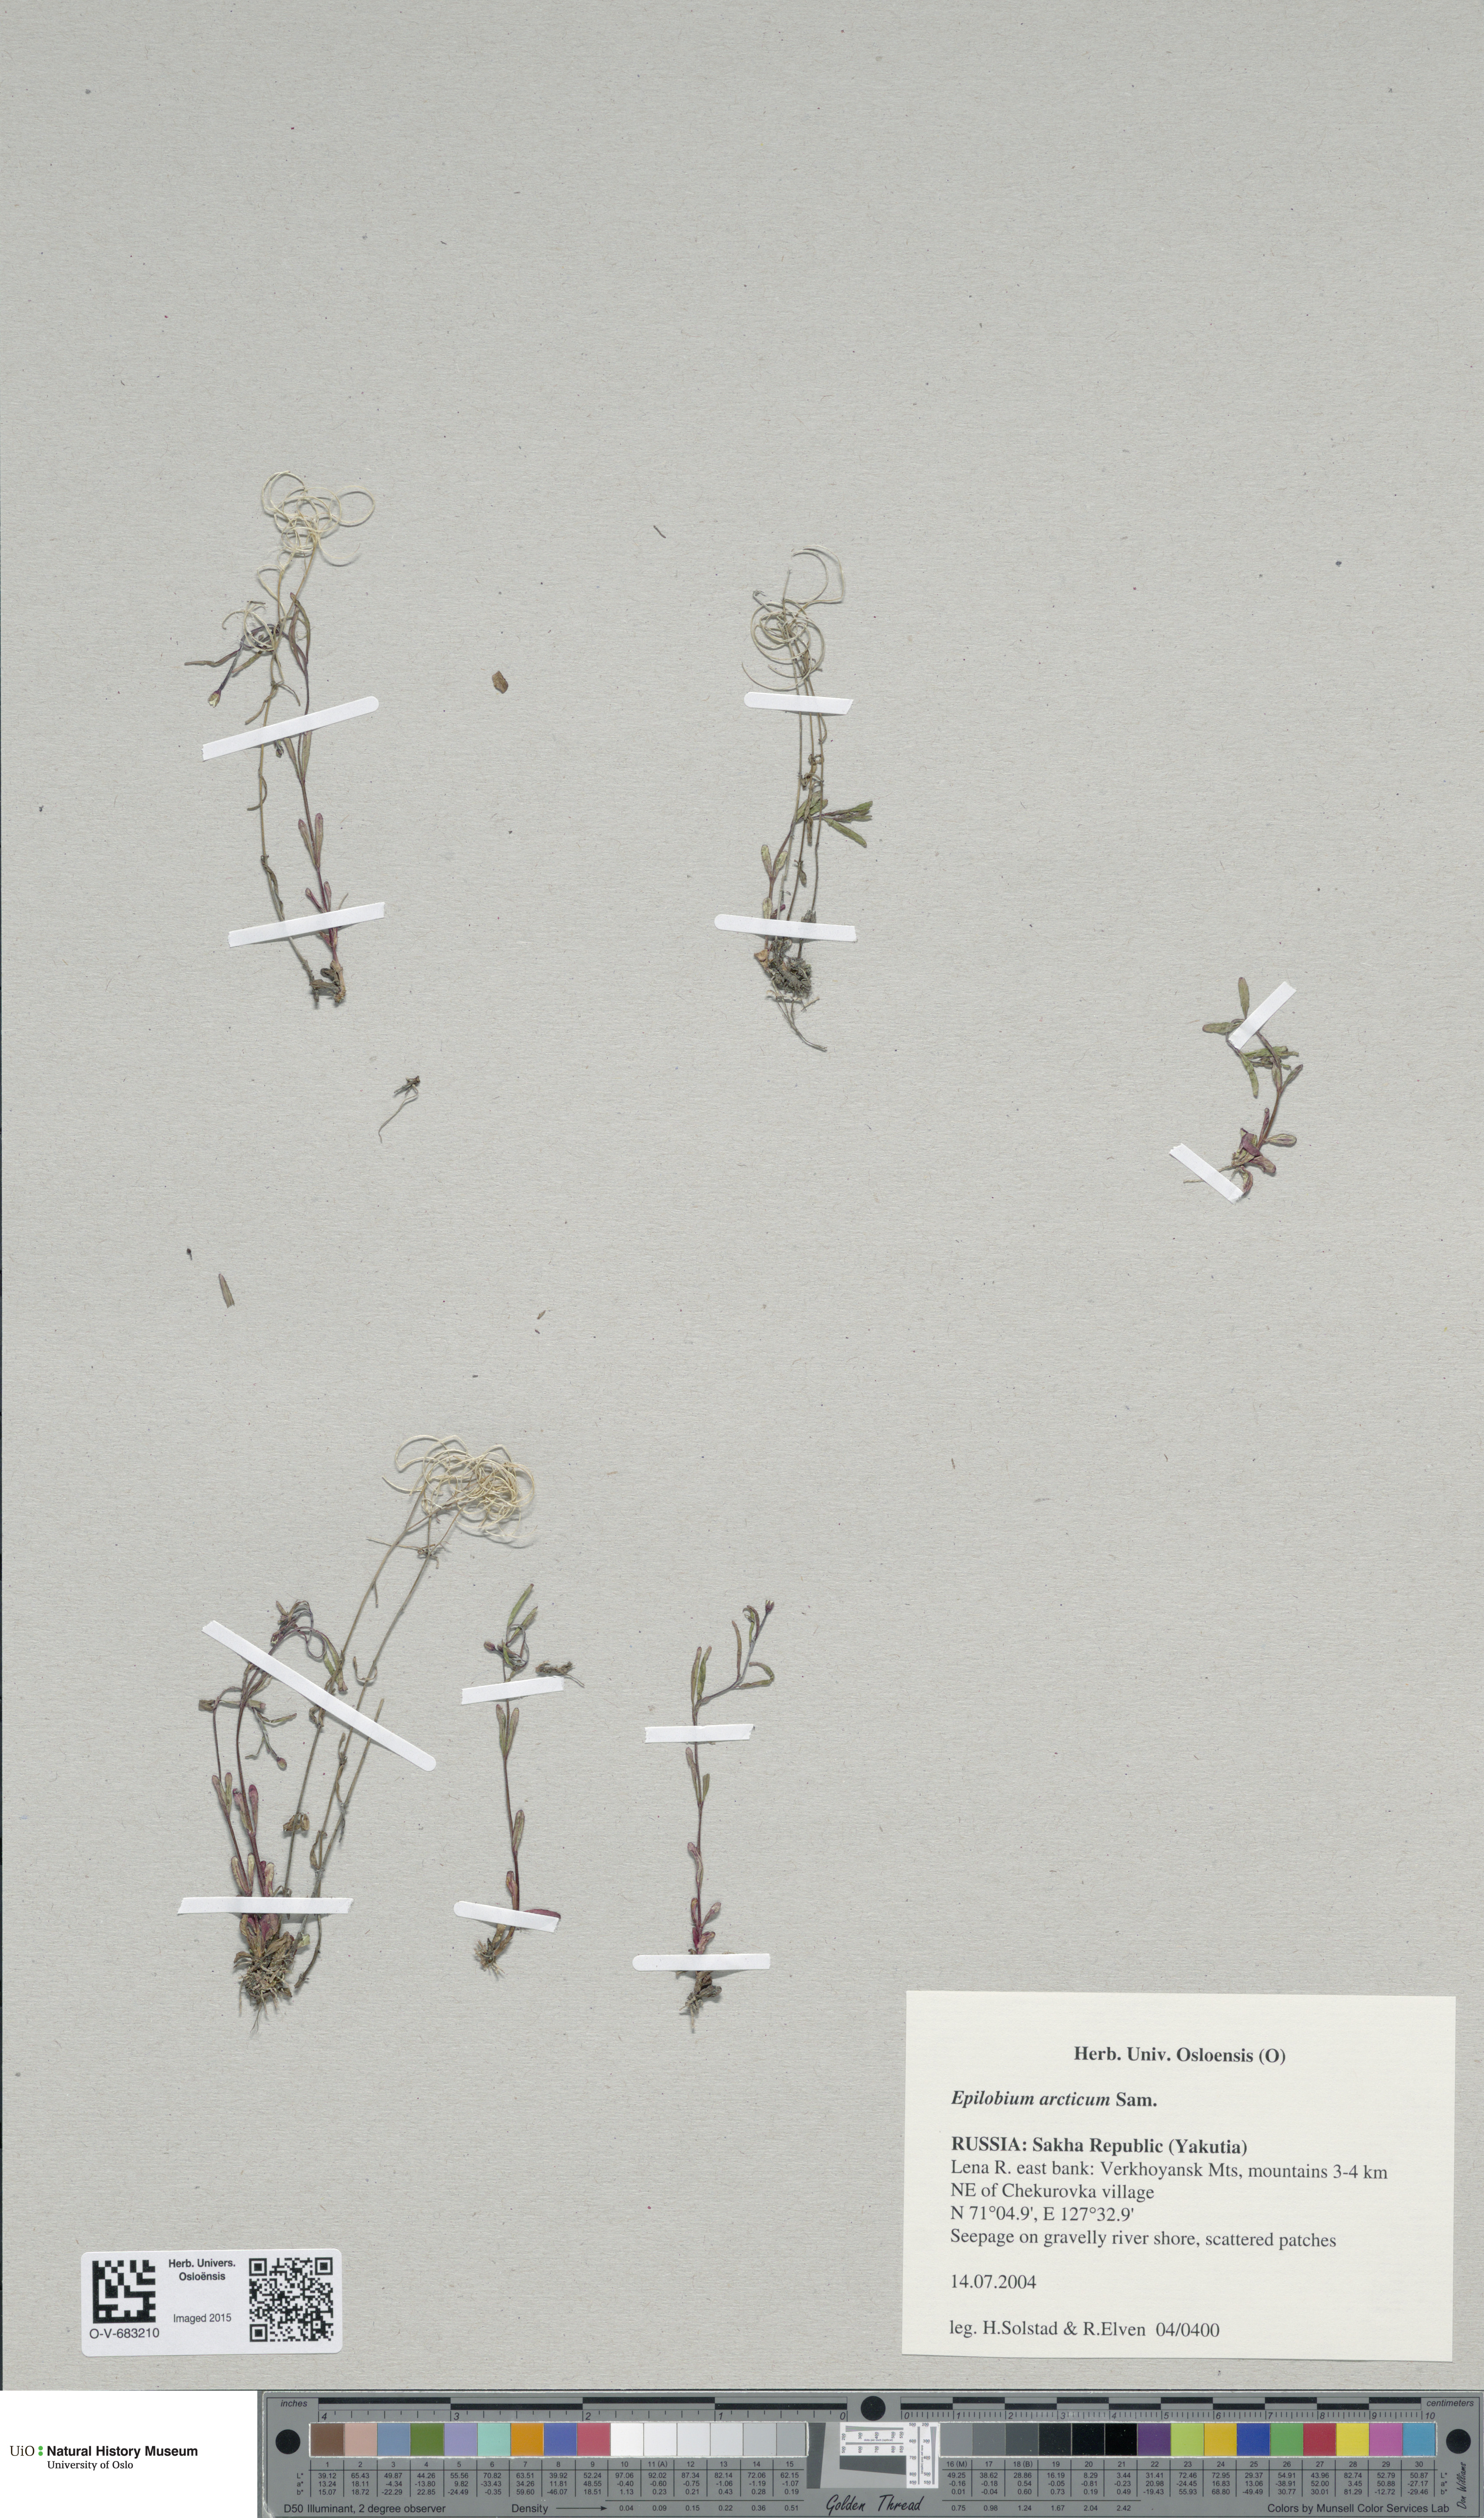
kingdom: Plantae
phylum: Tracheophyta
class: Magnoliopsida
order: Myrtales
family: Onagraceae
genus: Epilobium
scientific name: Epilobium arcticum
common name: Arctic willowherb
